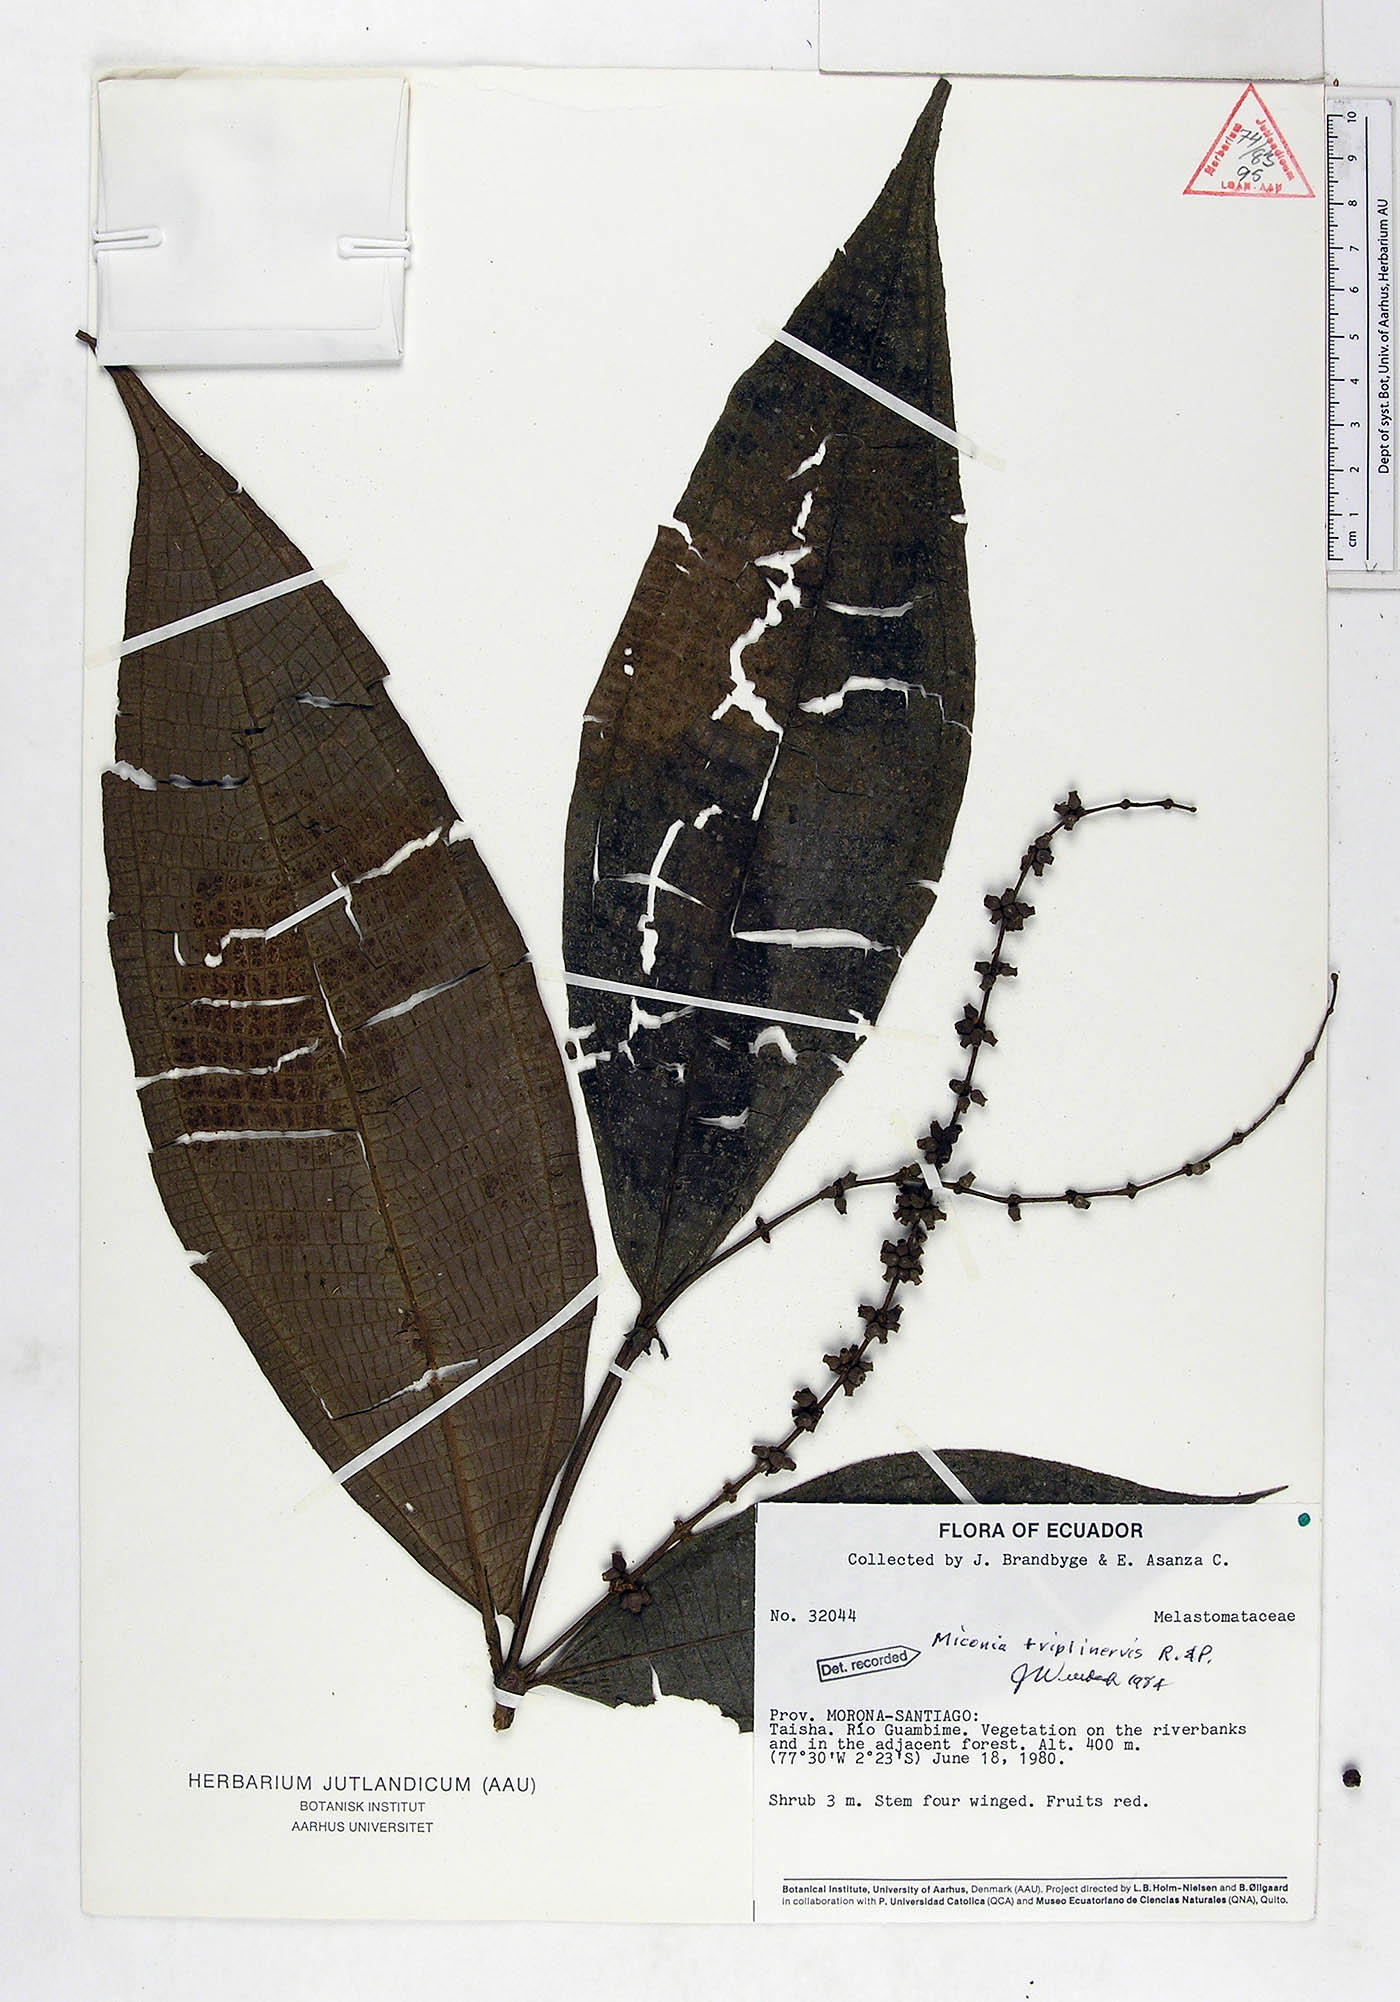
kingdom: Plantae
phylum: Tracheophyta
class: Magnoliopsida
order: Myrtales
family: Melastomataceae
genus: Miconia
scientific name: Miconia triplinervis
